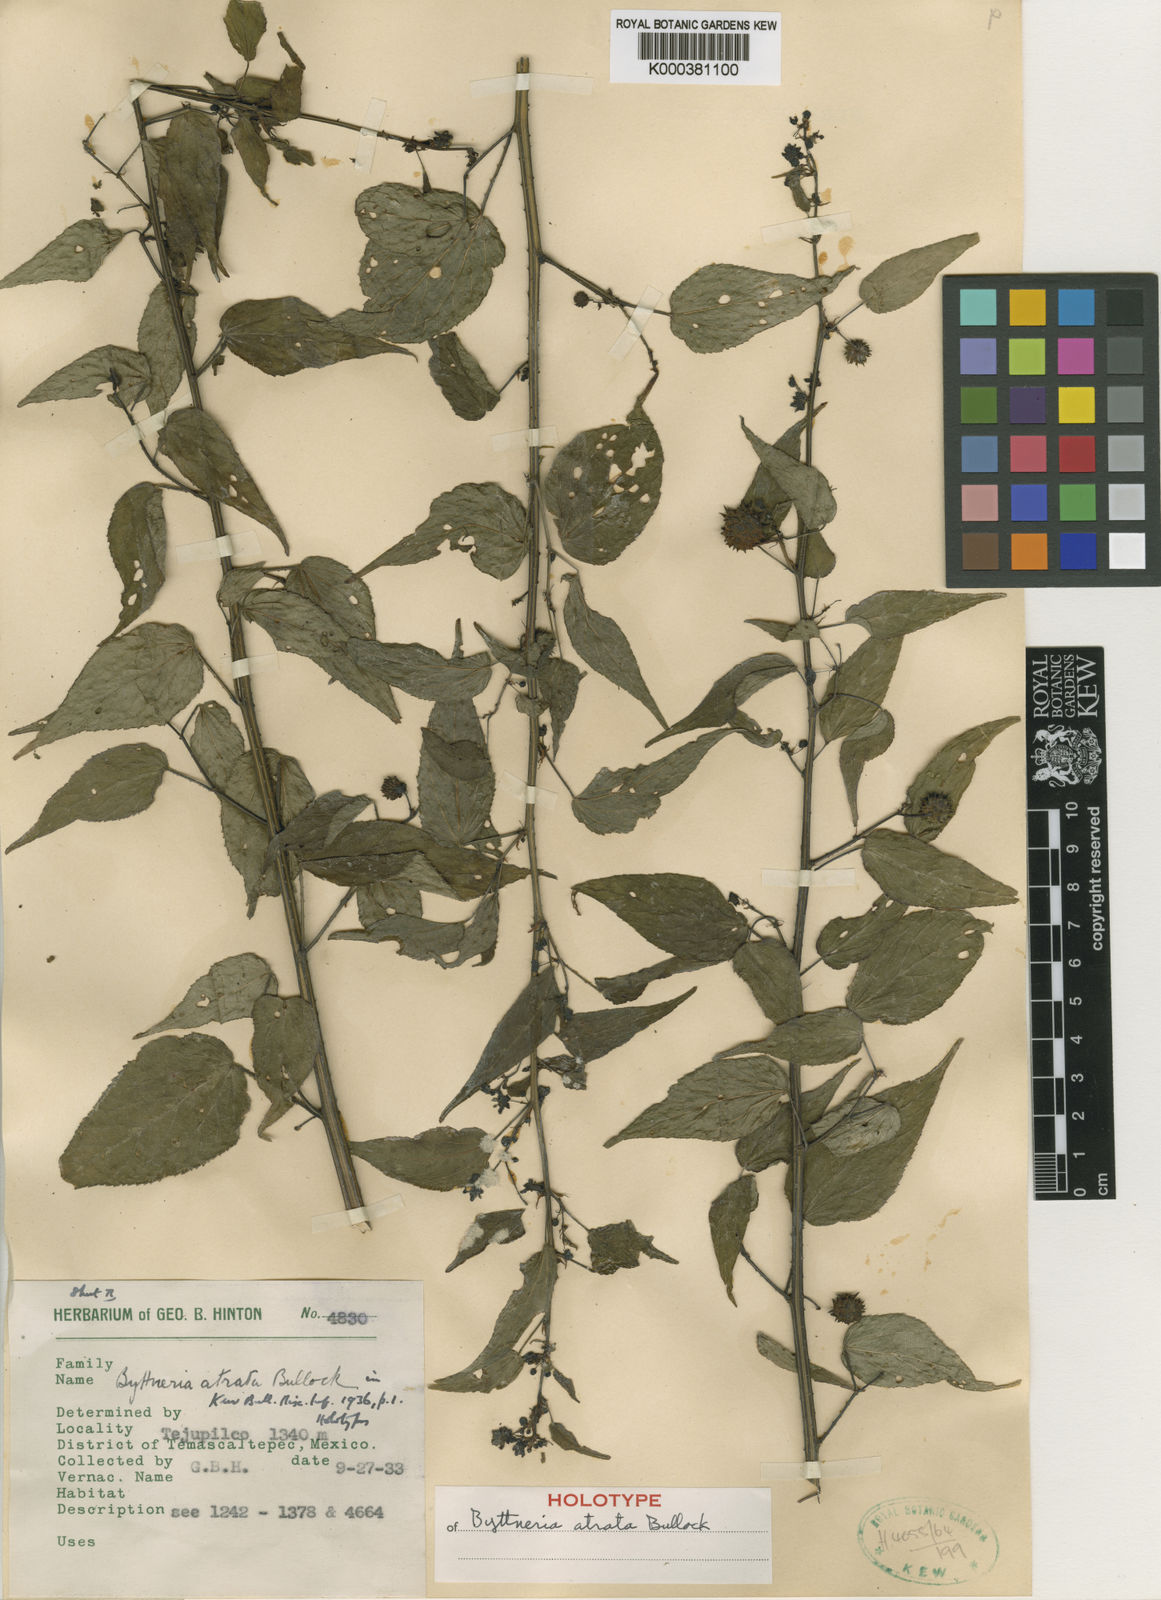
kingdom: Plantae
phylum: Tracheophyta
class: Magnoliopsida
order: Malvales
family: Malvaceae
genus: Byttneria
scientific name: Byttneria atrata
